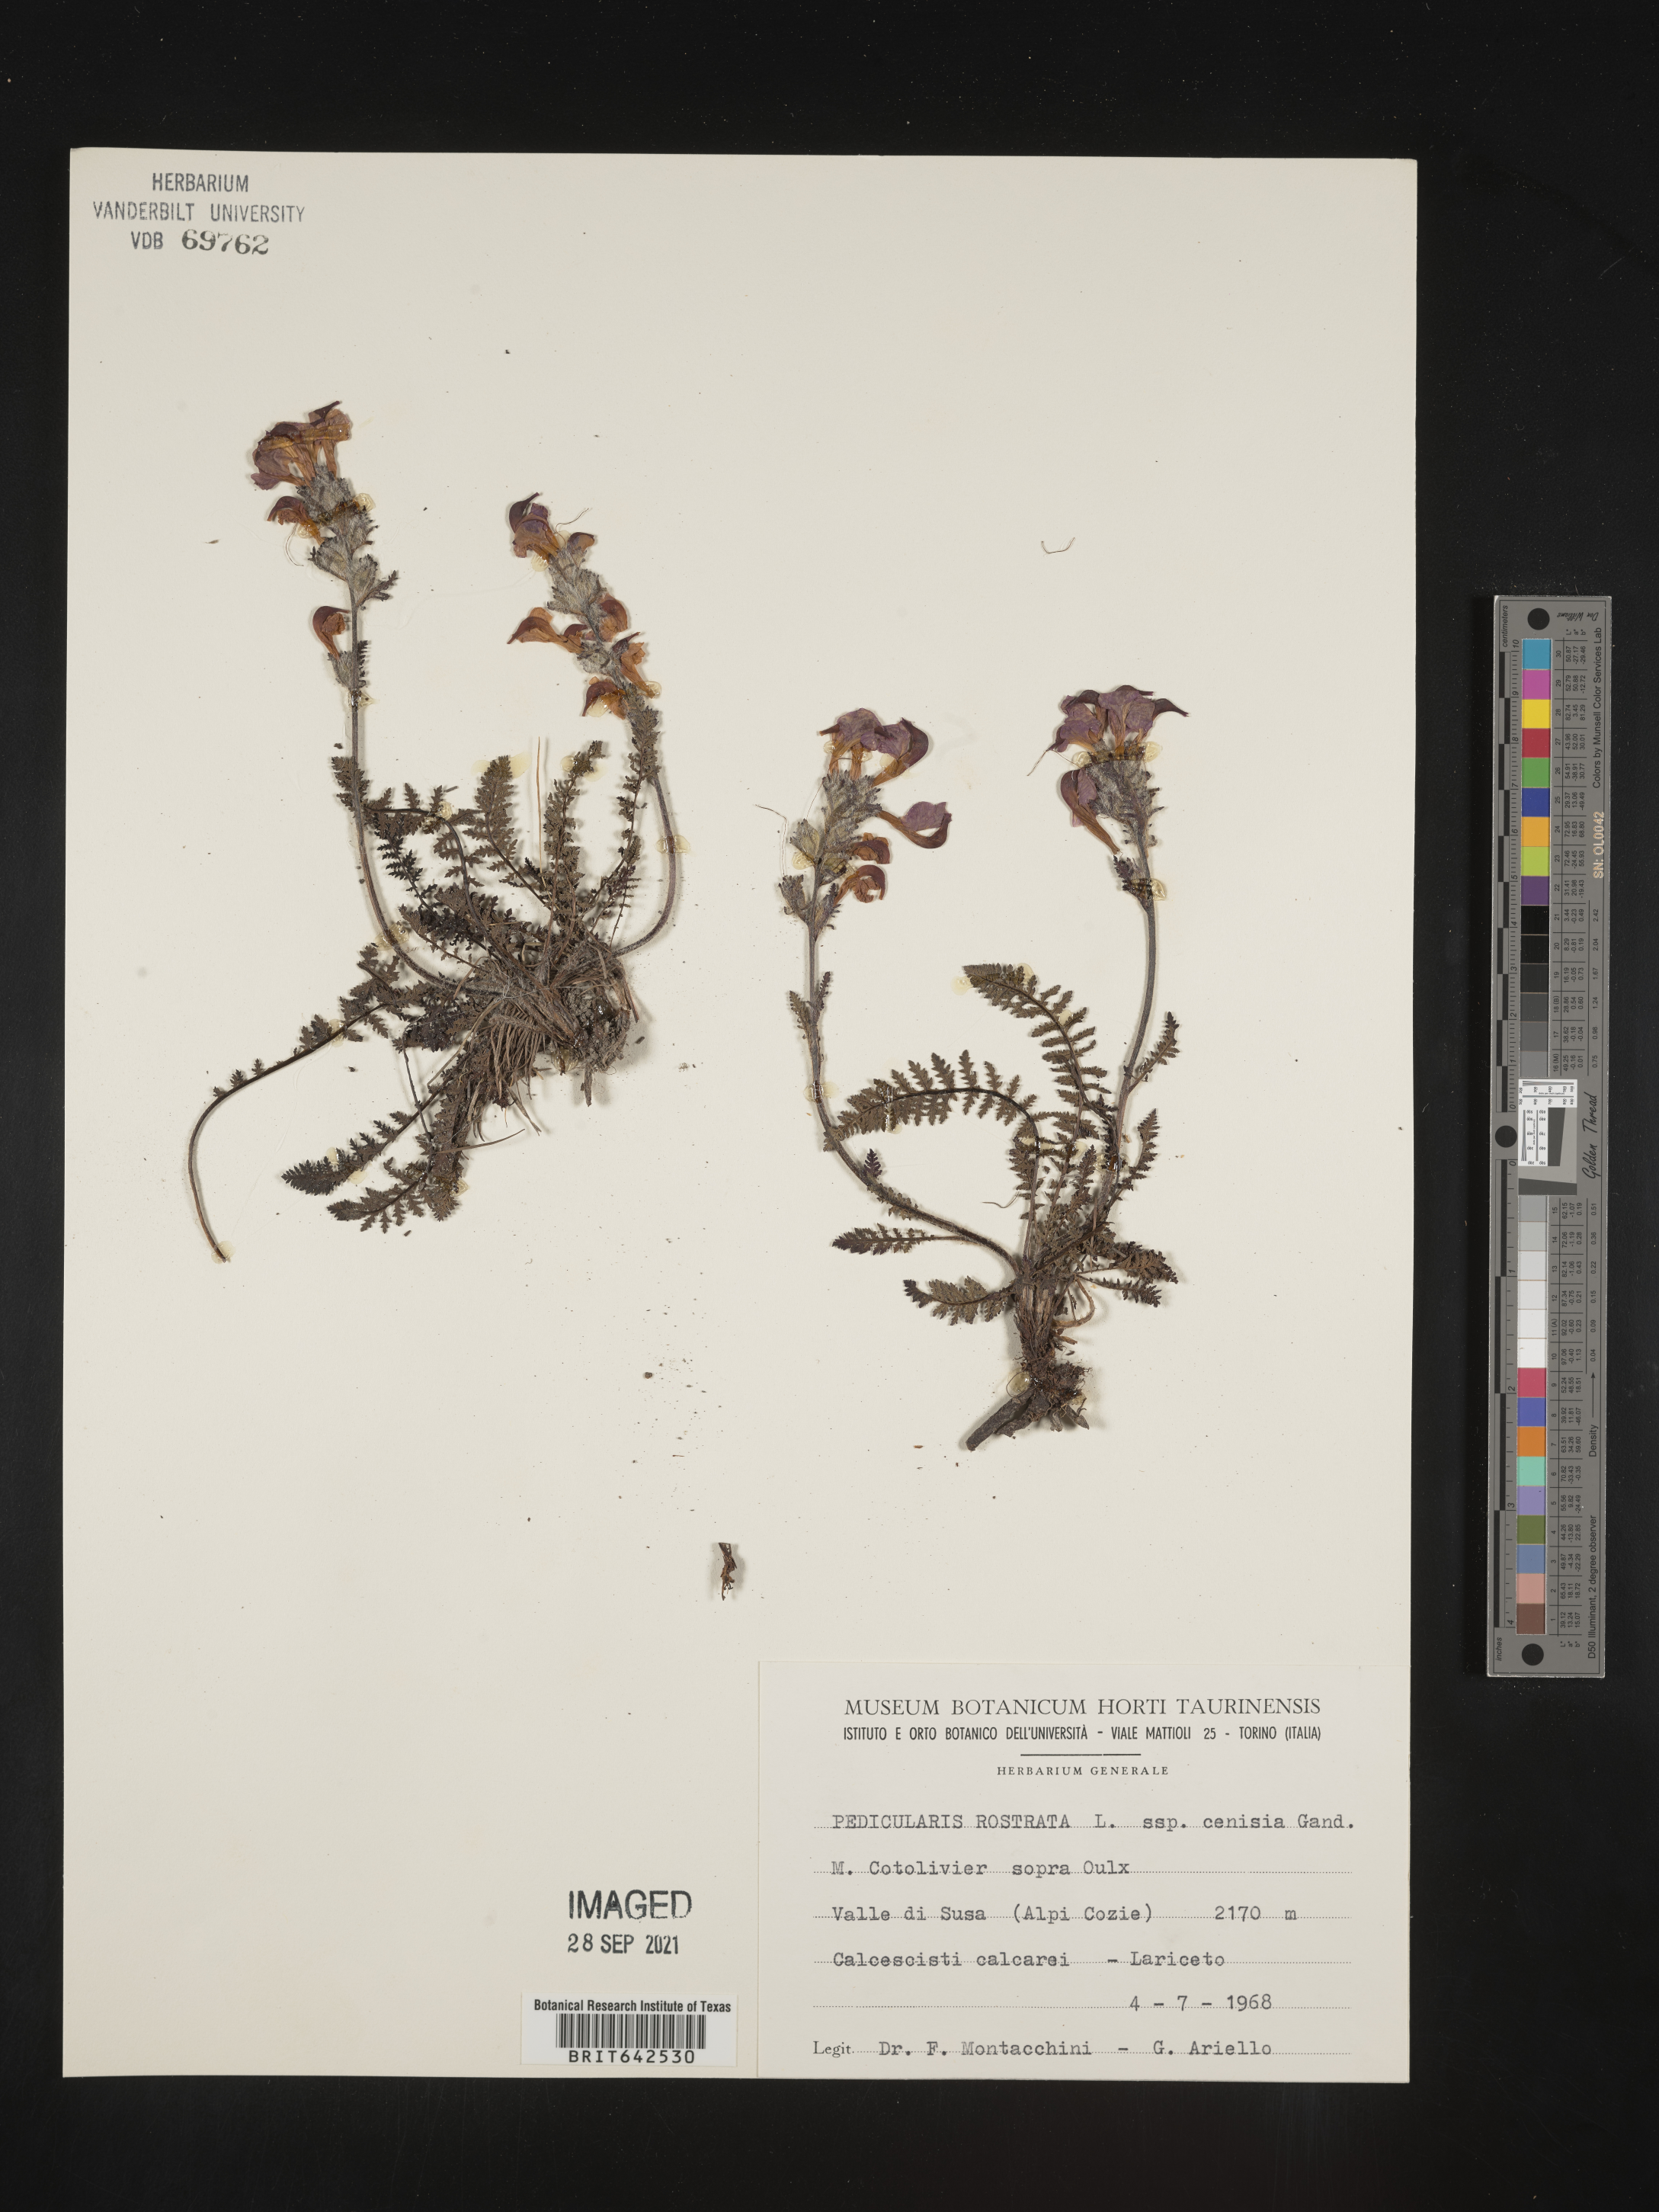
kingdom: Plantae
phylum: Tracheophyta
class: Magnoliopsida
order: Lamiales
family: Orobanchaceae
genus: Pedicularis
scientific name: Pedicularis
